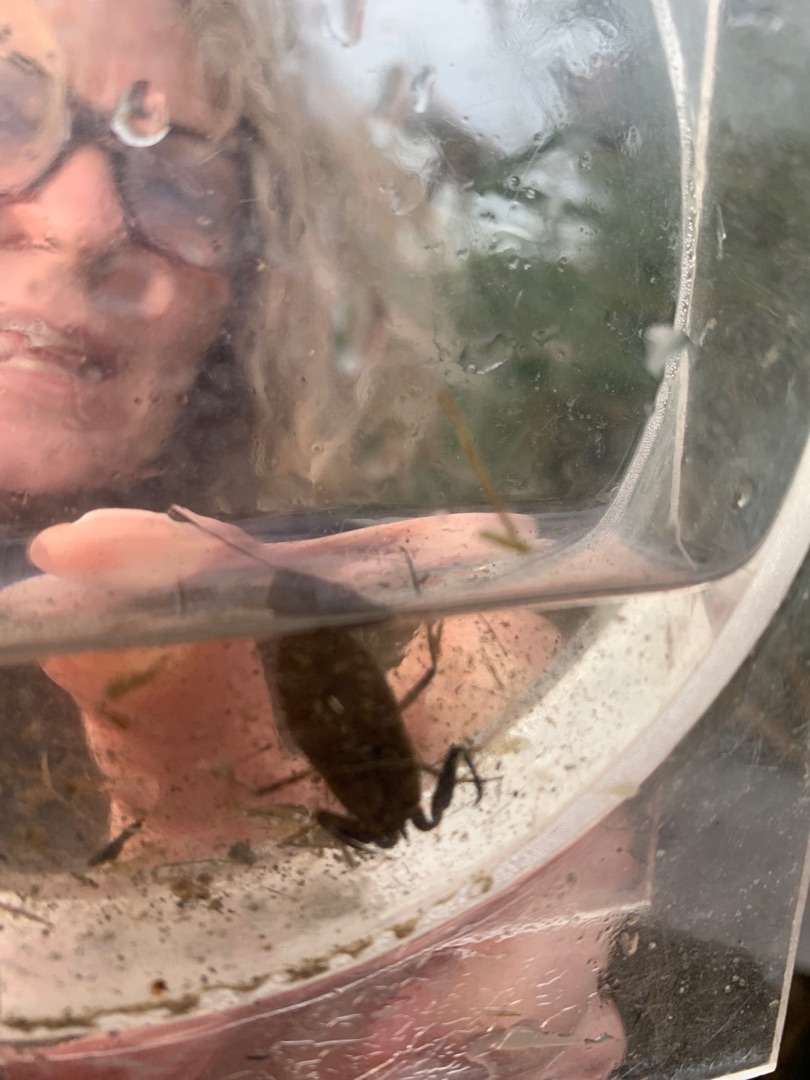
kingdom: Animalia
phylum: Arthropoda
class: Insecta
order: Hemiptera
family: Nepidae
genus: Nepa
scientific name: Nepa cinerea
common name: Skorpiontæge
